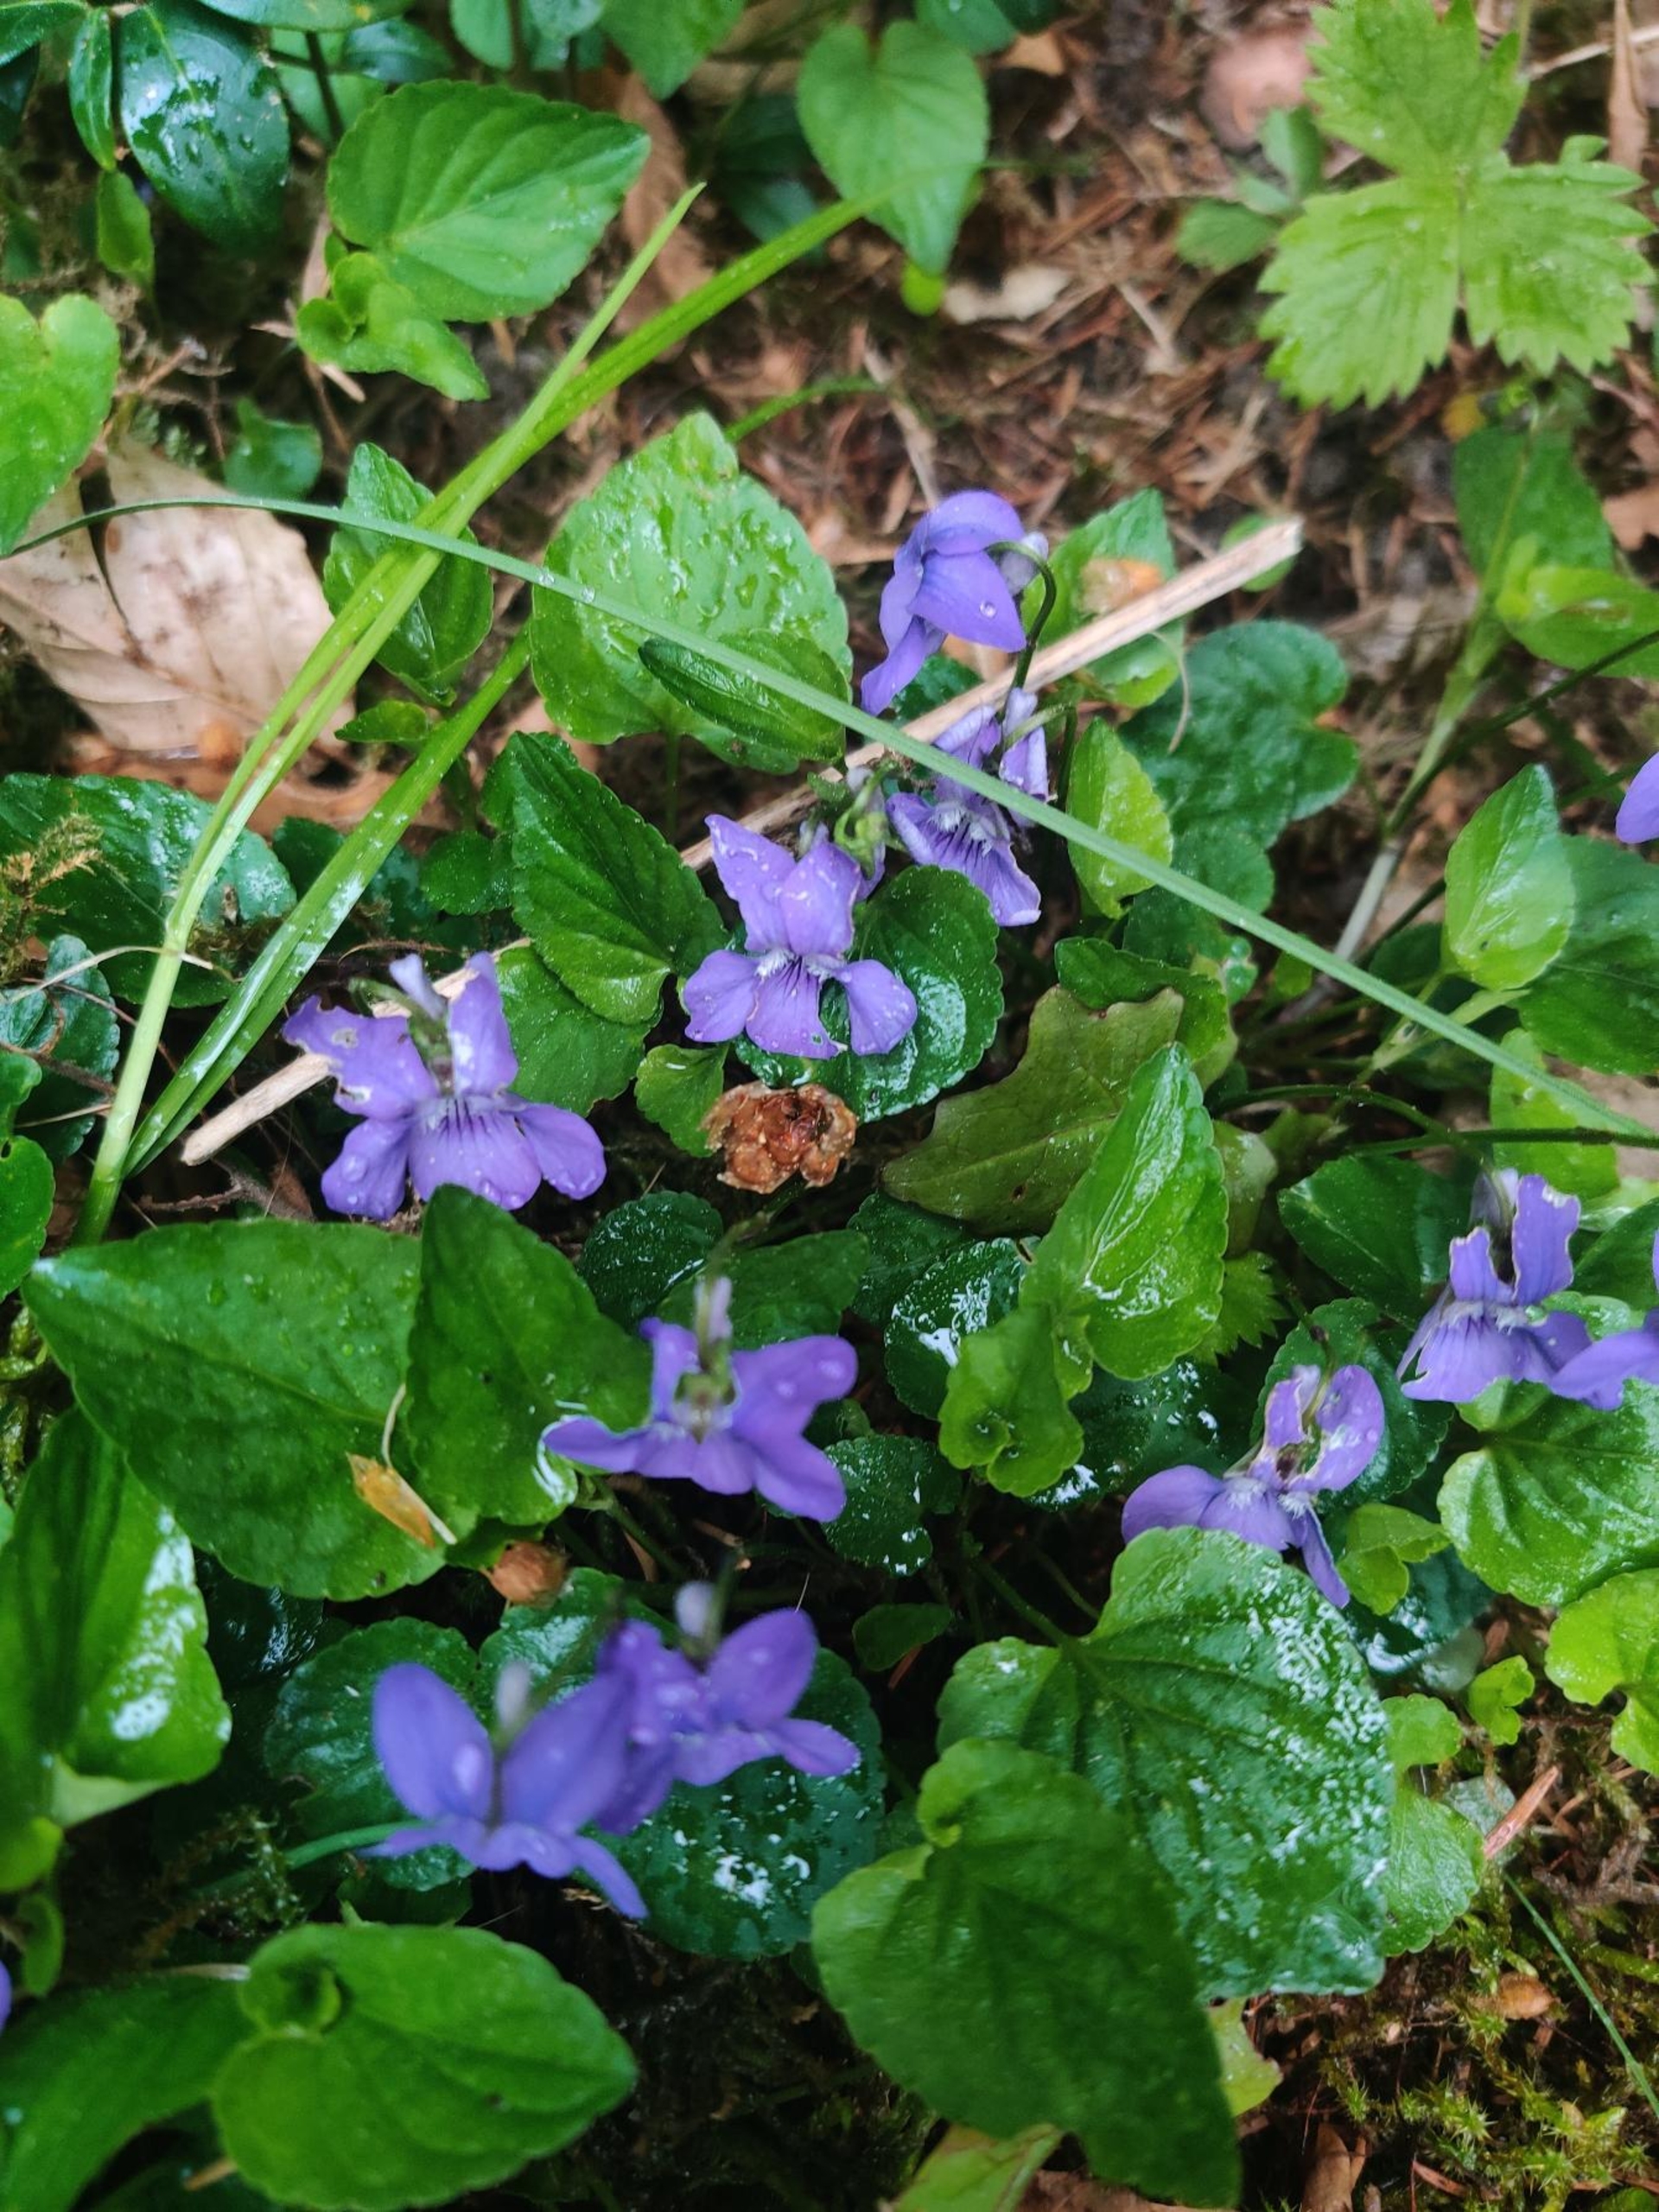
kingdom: Plantae
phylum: Tracheophyta
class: Magnoliopsida
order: Malpighiales
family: Violaceae
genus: Viola
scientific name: Viola reichenbachiana
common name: Skov-viol
